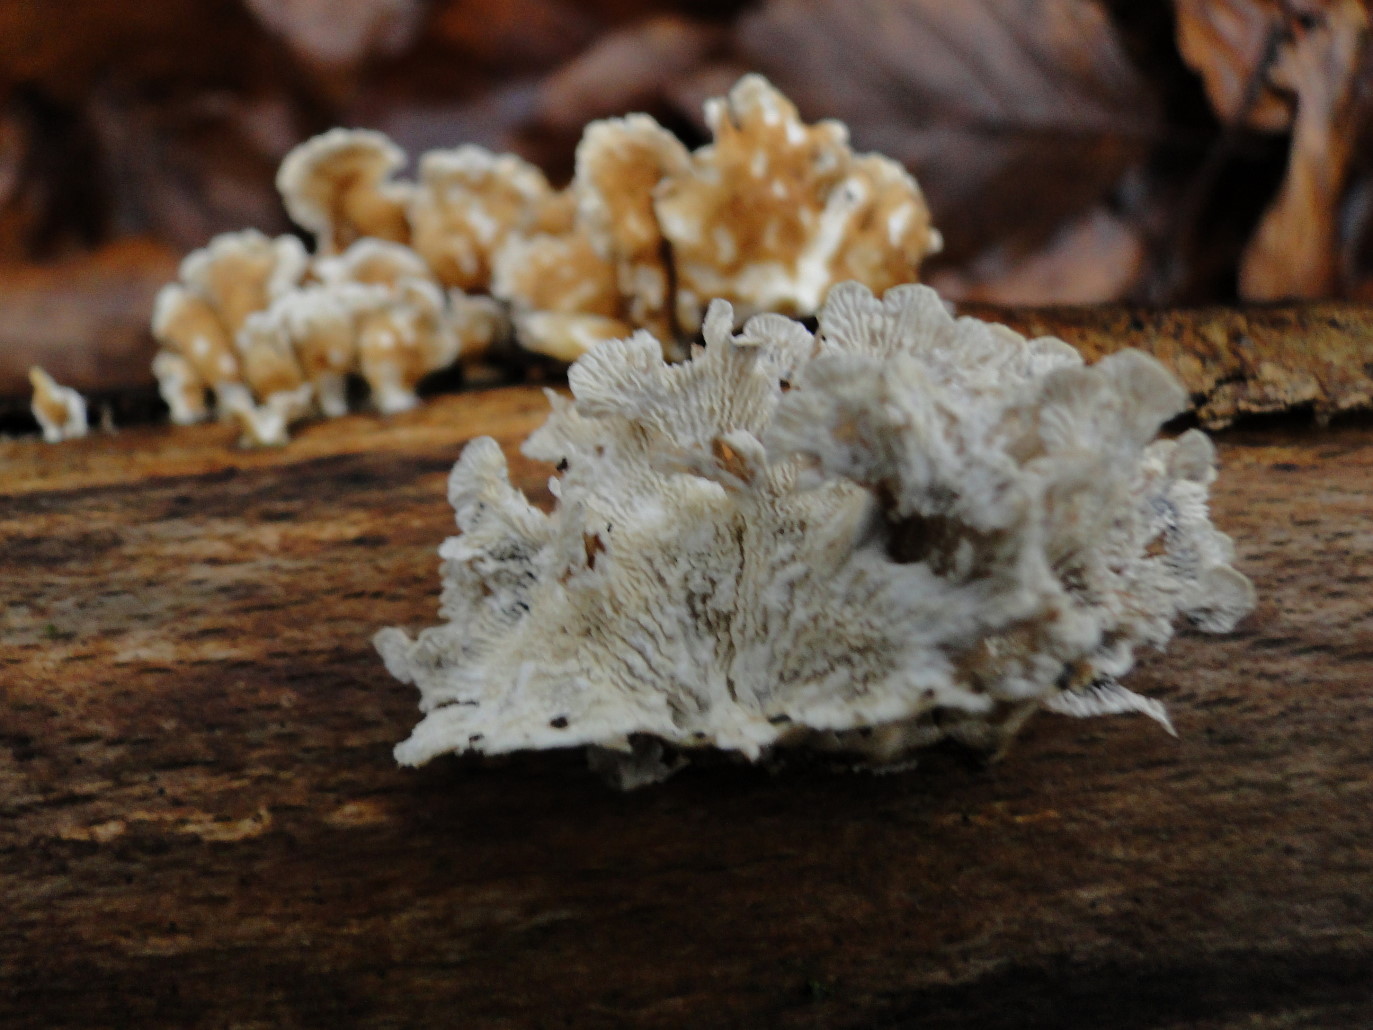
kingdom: Fungi
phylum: Basidiomycota
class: Agaricomycetes
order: Amylocorticiales
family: Amylocorticiaceae
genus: Plicaturopsis
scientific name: Plicaturopsis crispa
